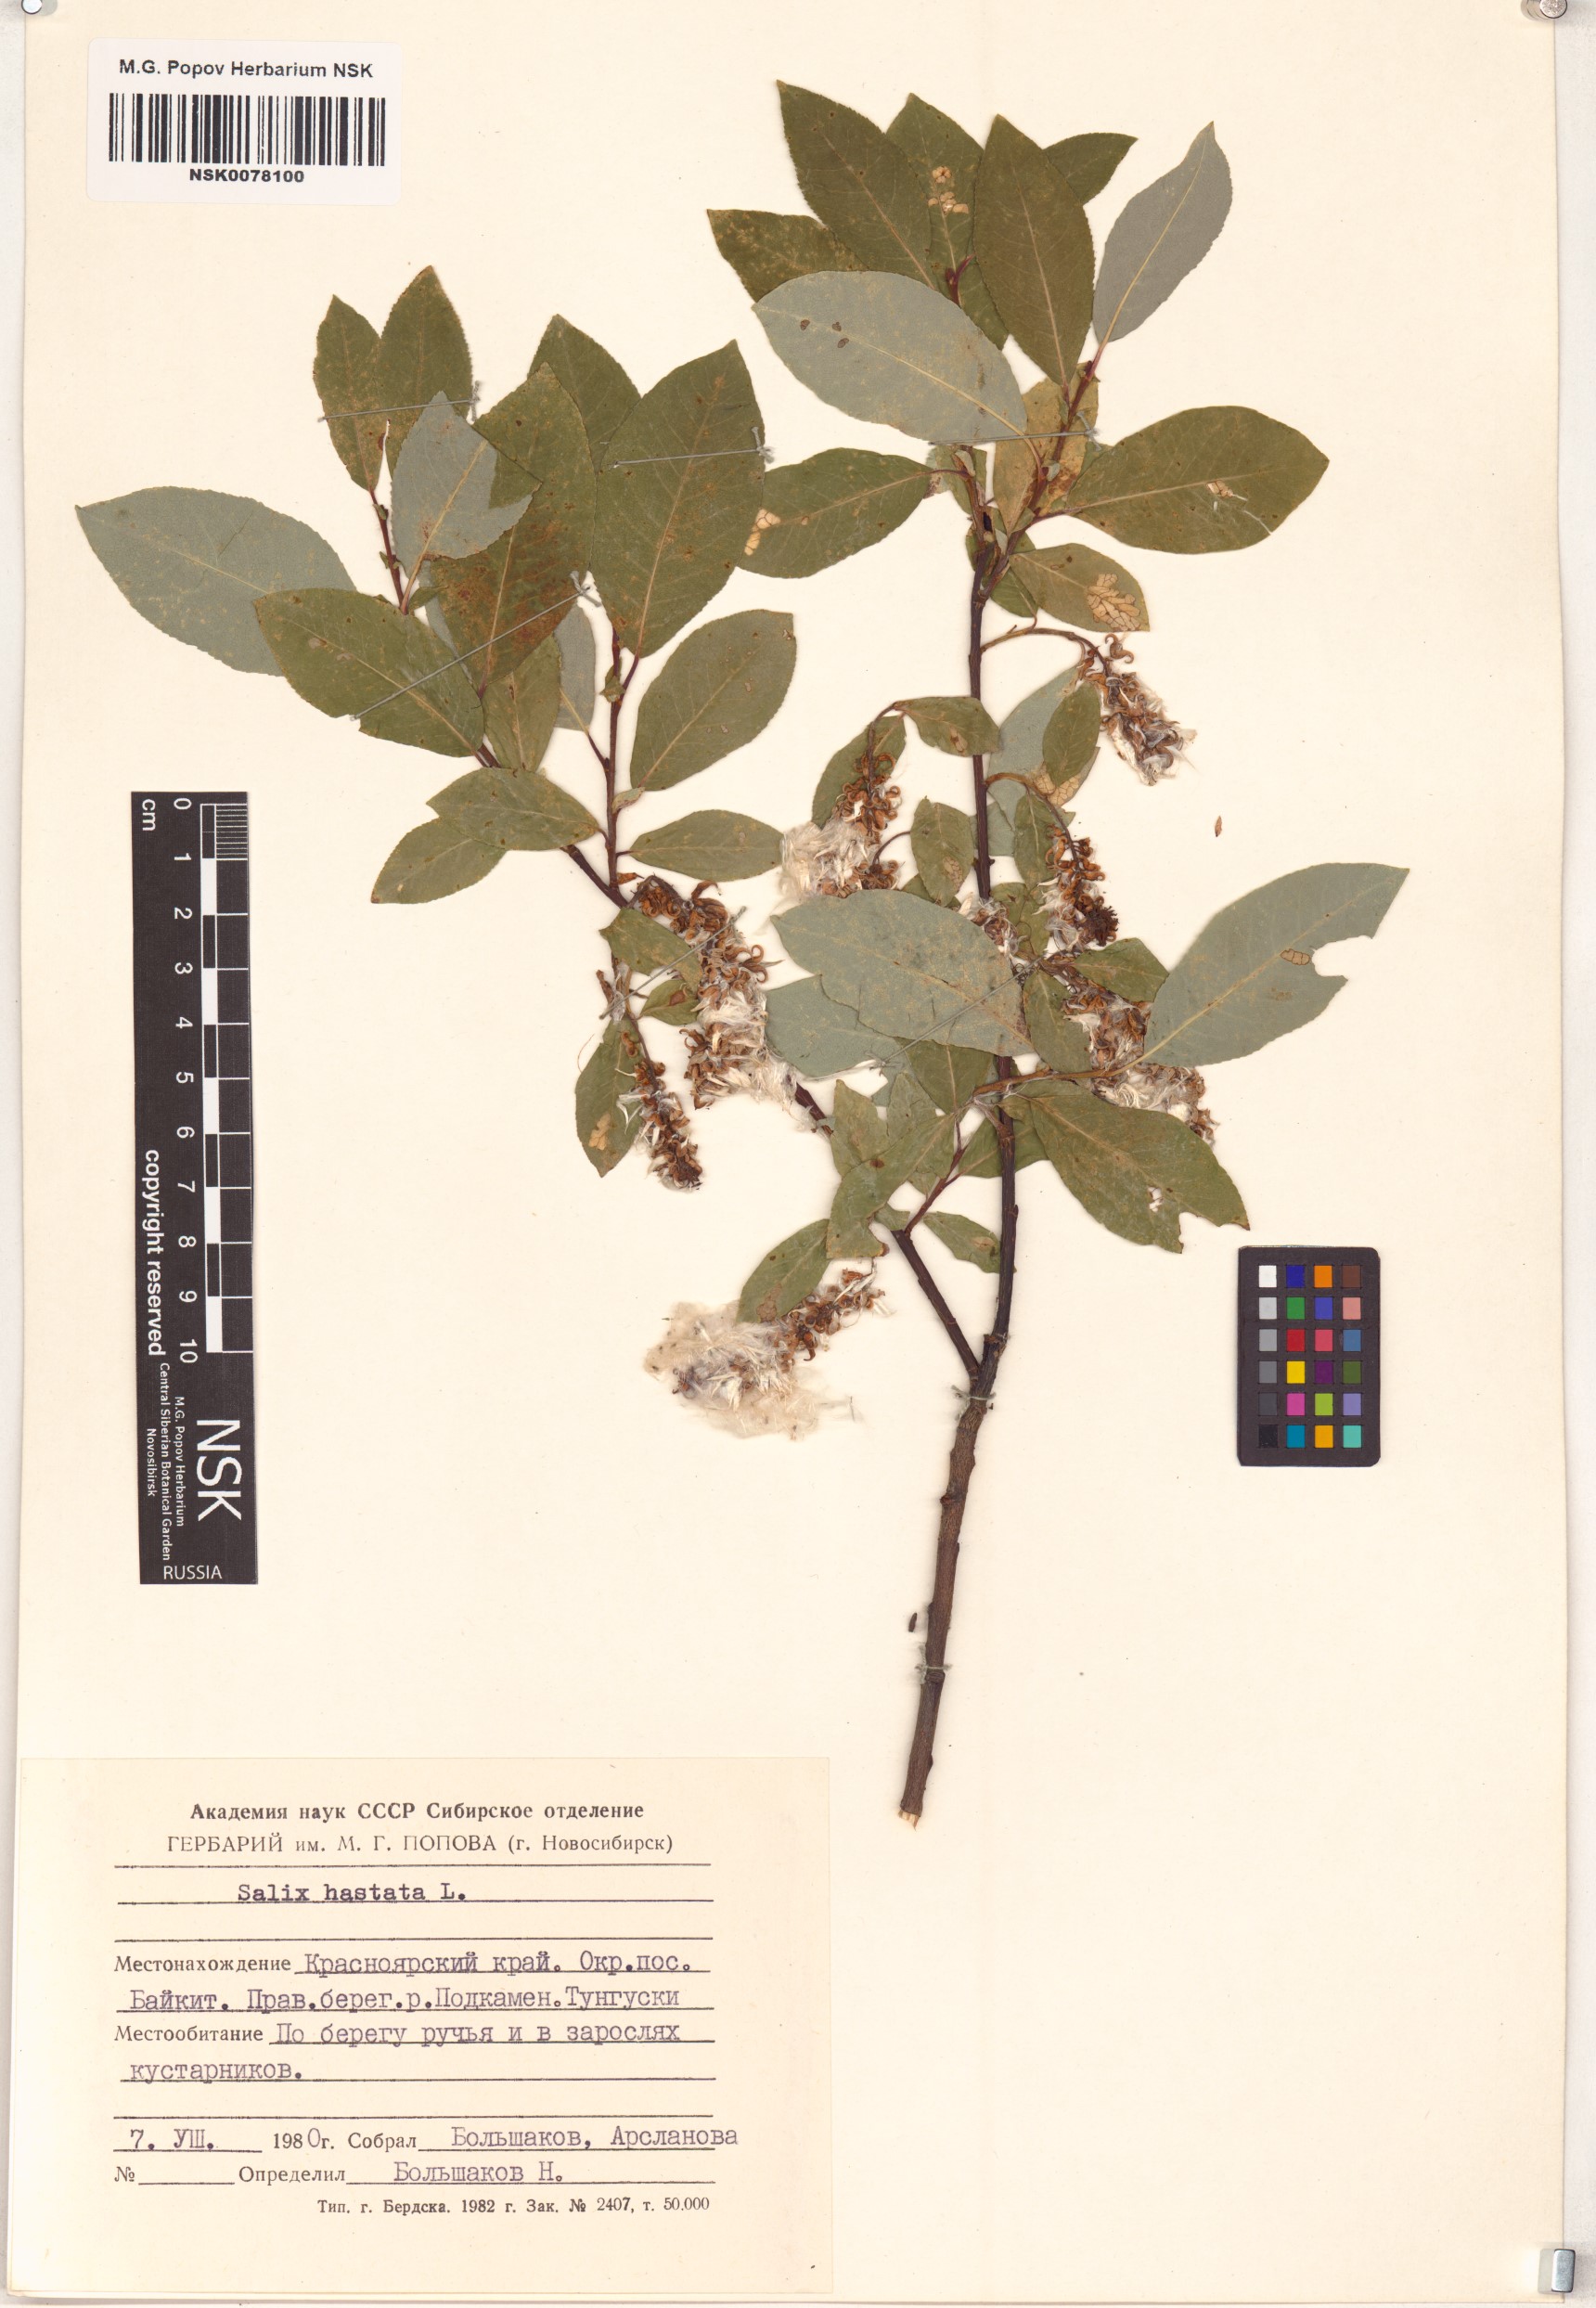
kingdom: Plantae
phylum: Tracheophyta
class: Magnoliopsida
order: Malpighiales
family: Salicaceae
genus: Salix
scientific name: Salix hastata
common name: Halberd willow
